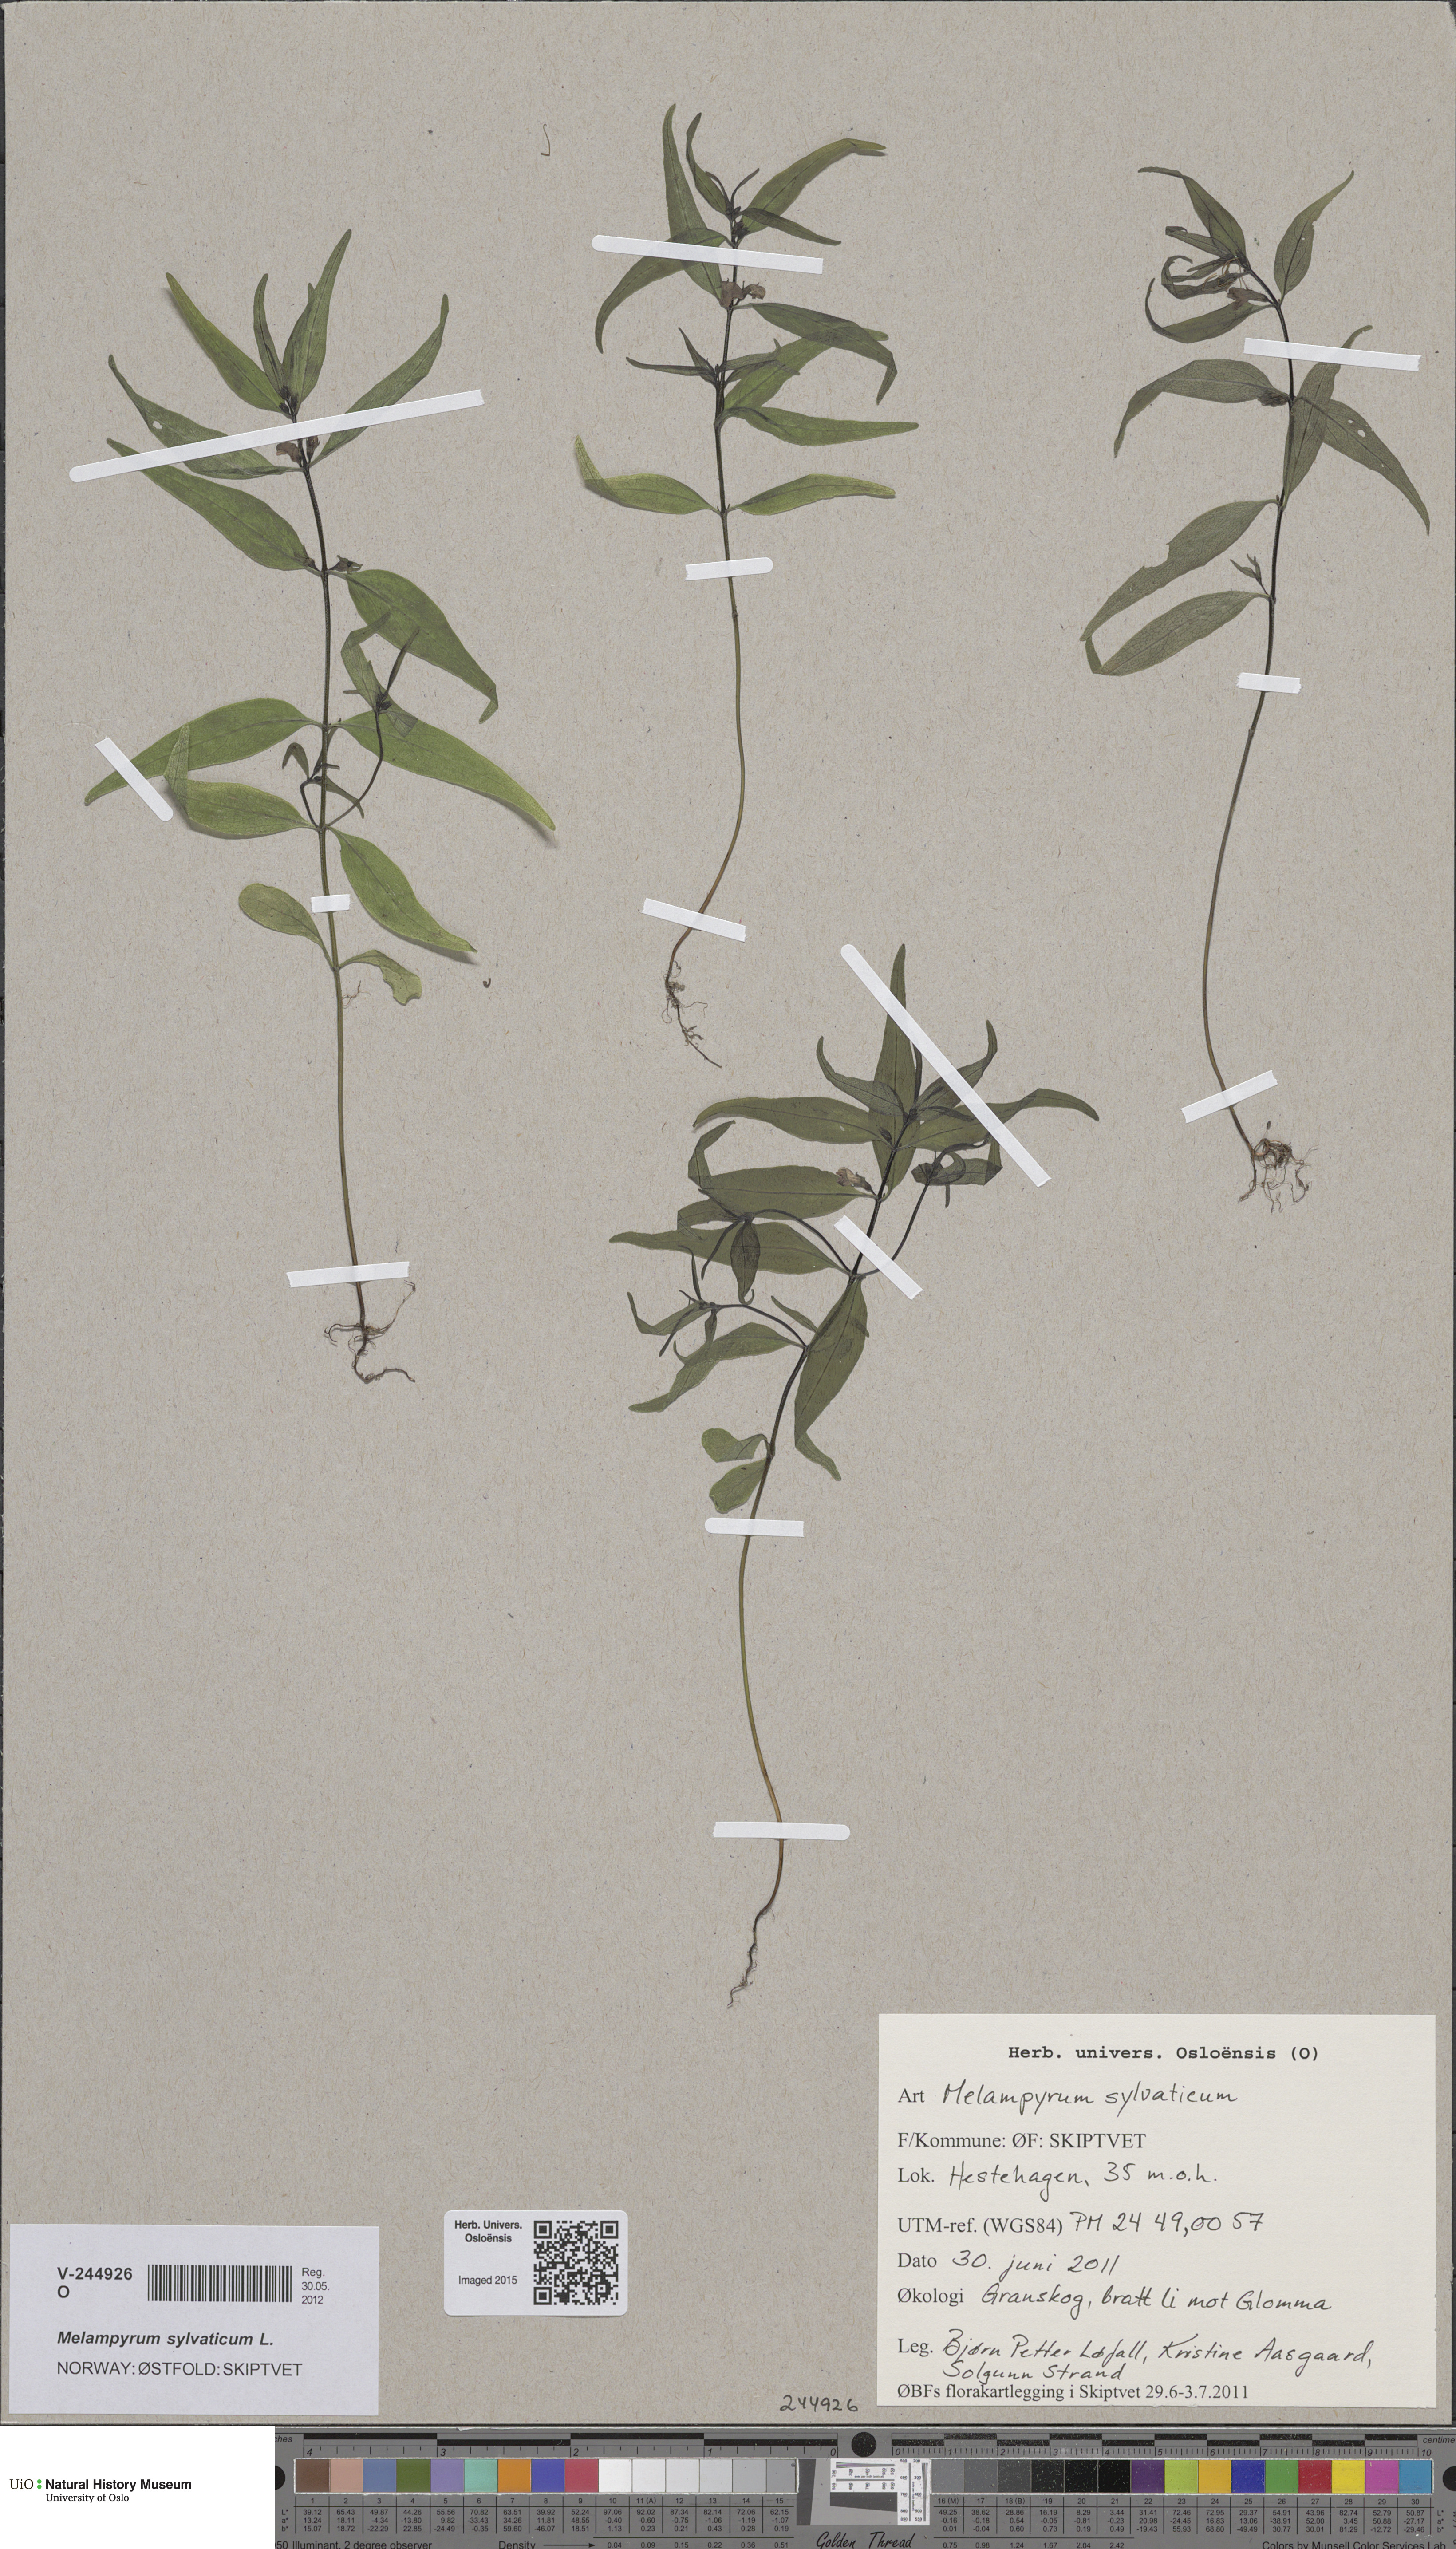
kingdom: Plantae
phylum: Tracheophyta
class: Magnoliopsida
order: Lamiales
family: Orobanchaceae
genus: Melampyrum
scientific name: Melampyrum sylvaticum
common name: Small cow-wheat
